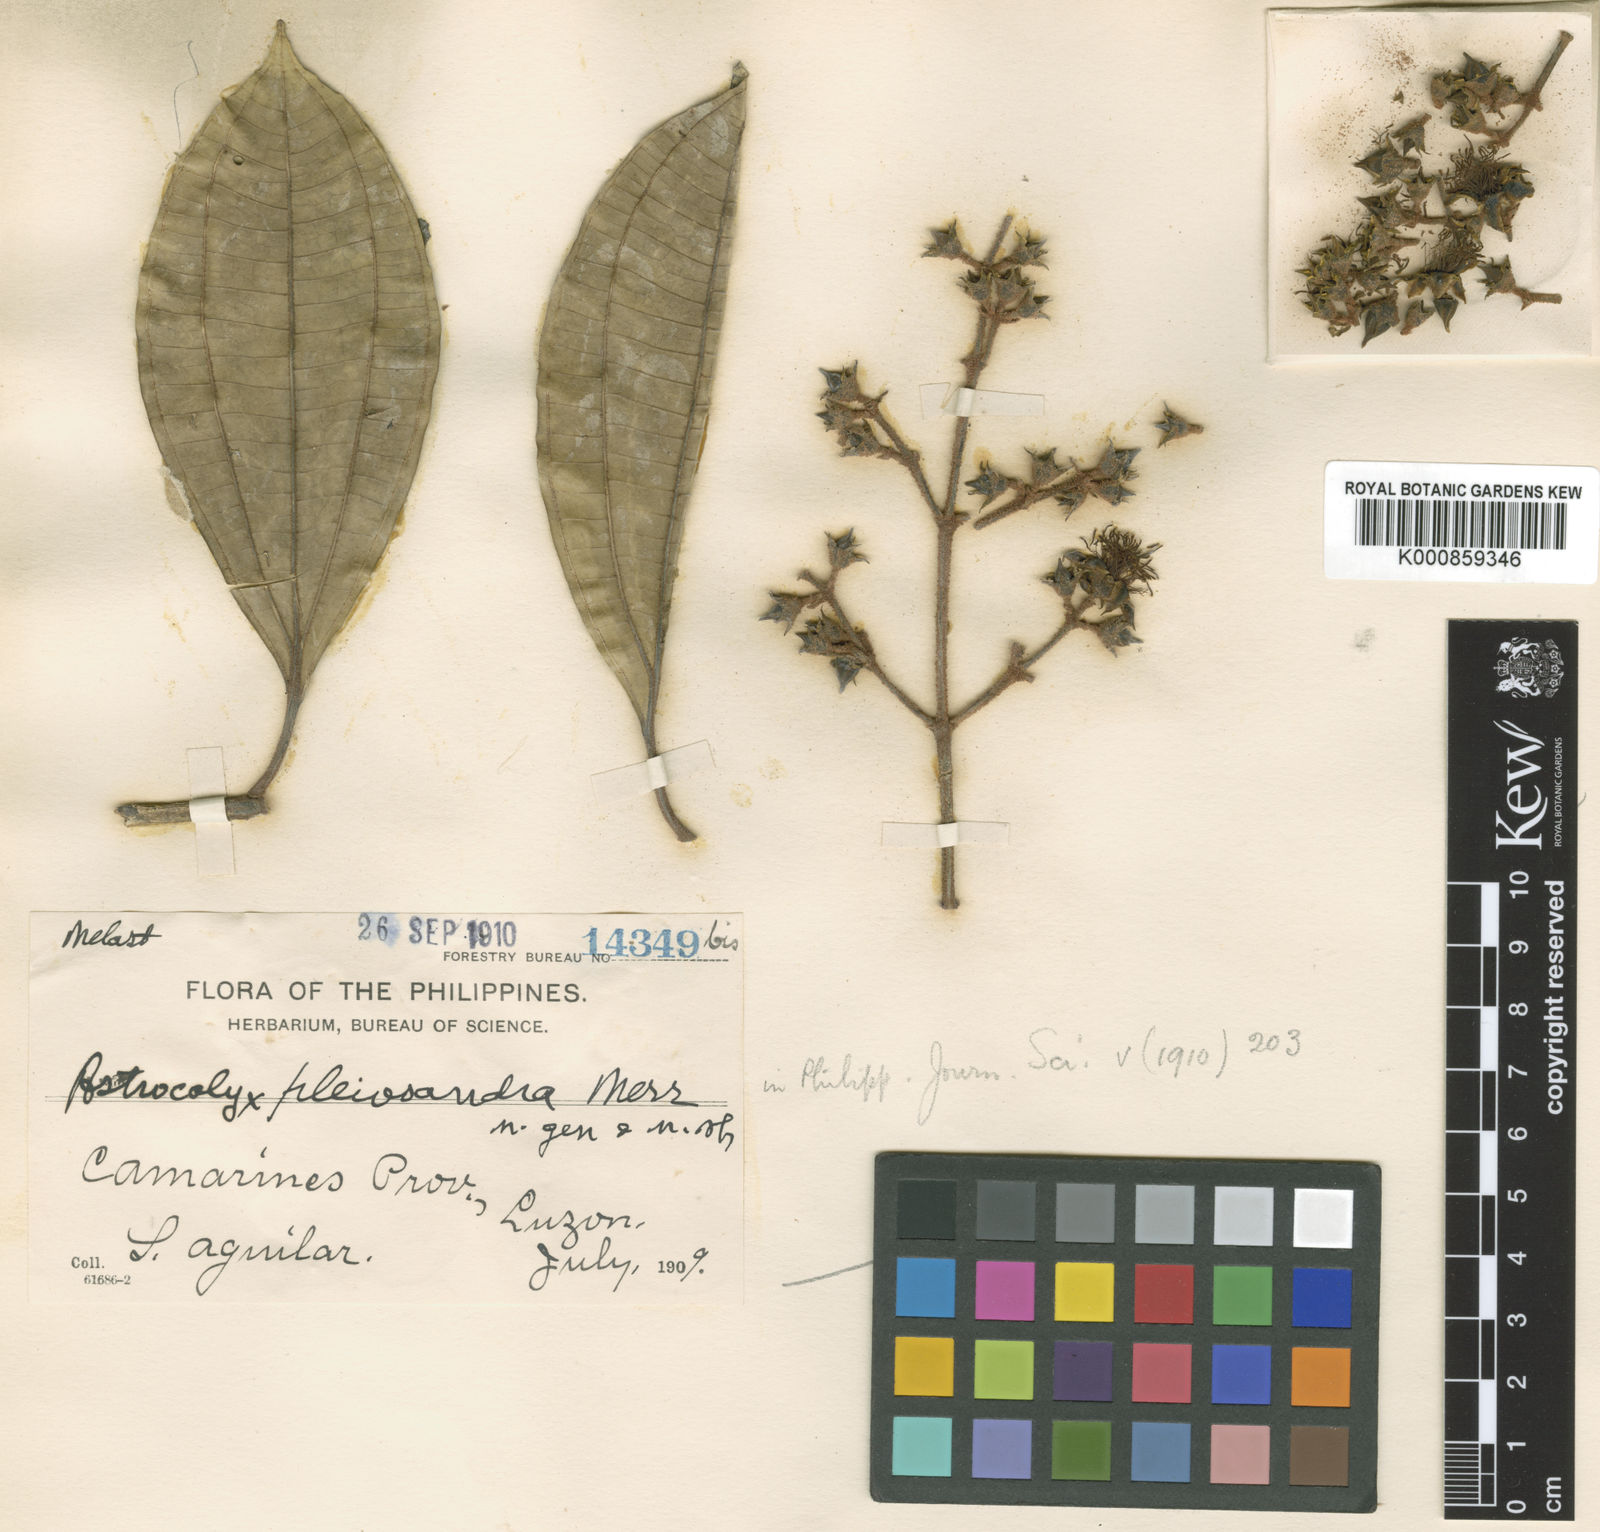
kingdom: Plantae
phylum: Tracheophyta
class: Magnoliopsida
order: Myrtales
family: Melastomataceae
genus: Astrocalyx
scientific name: Astrocalyx calycina
